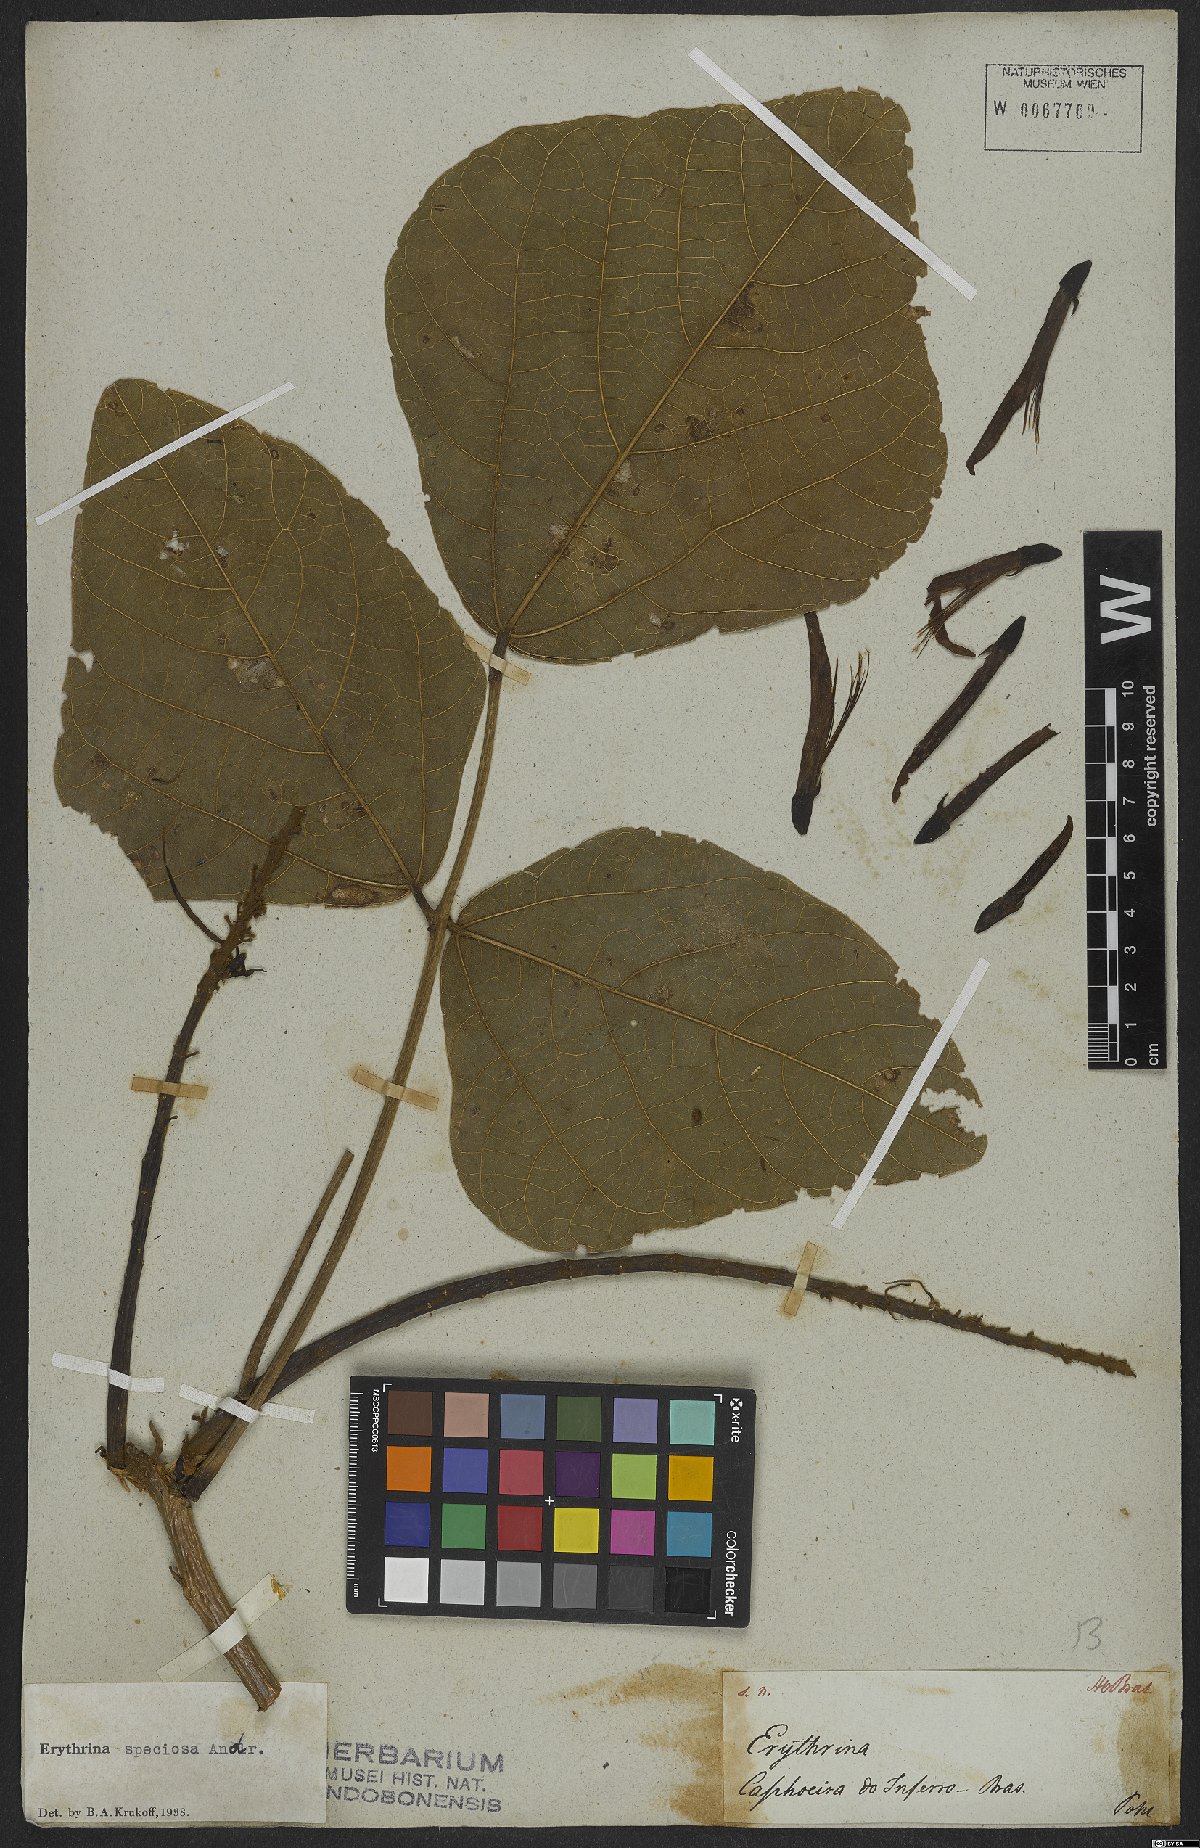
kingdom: Plantae
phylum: Tracheophyta
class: Magnoliopsida
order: Fabales
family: Fabaceae
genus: Erythrina
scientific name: Erythrina speciosa
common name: Coral tree
